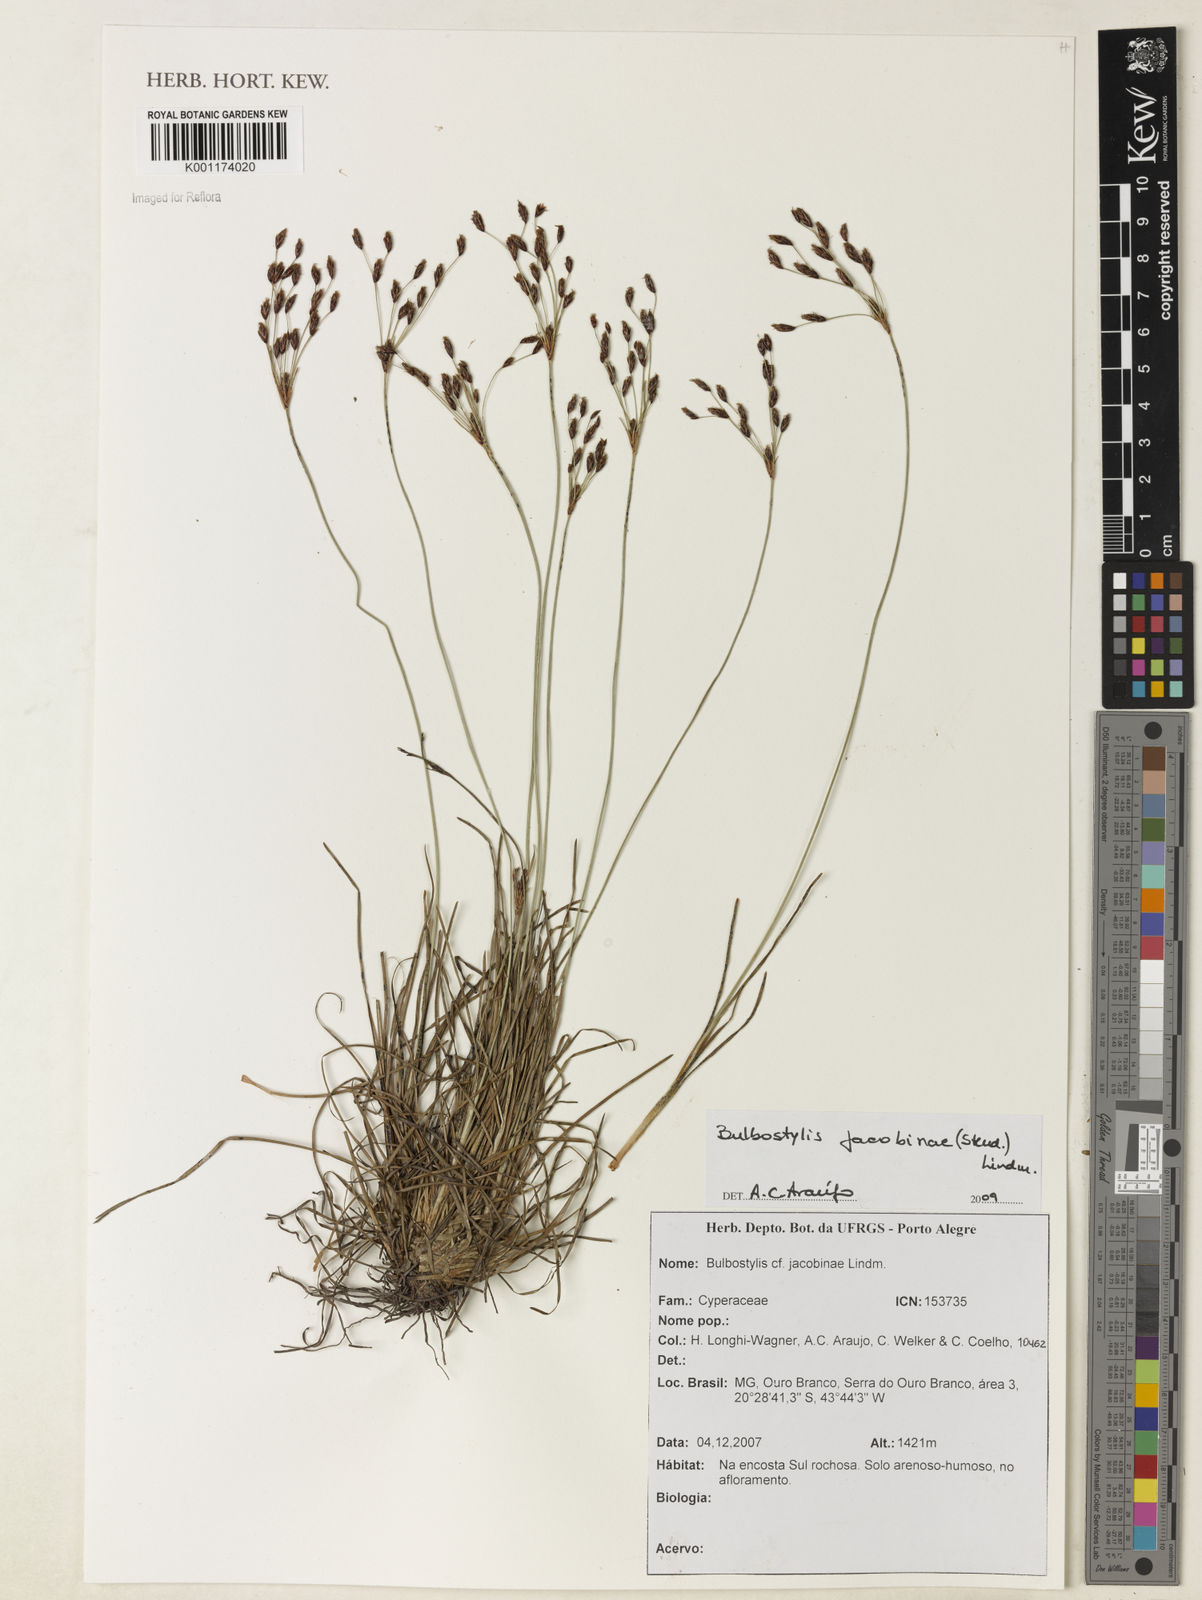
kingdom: Plantae
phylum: Tracheophyta
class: Liliopsida
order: Poales
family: Cyperaceae
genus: Bulbostylis
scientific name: Bulbostylis jacobinae
